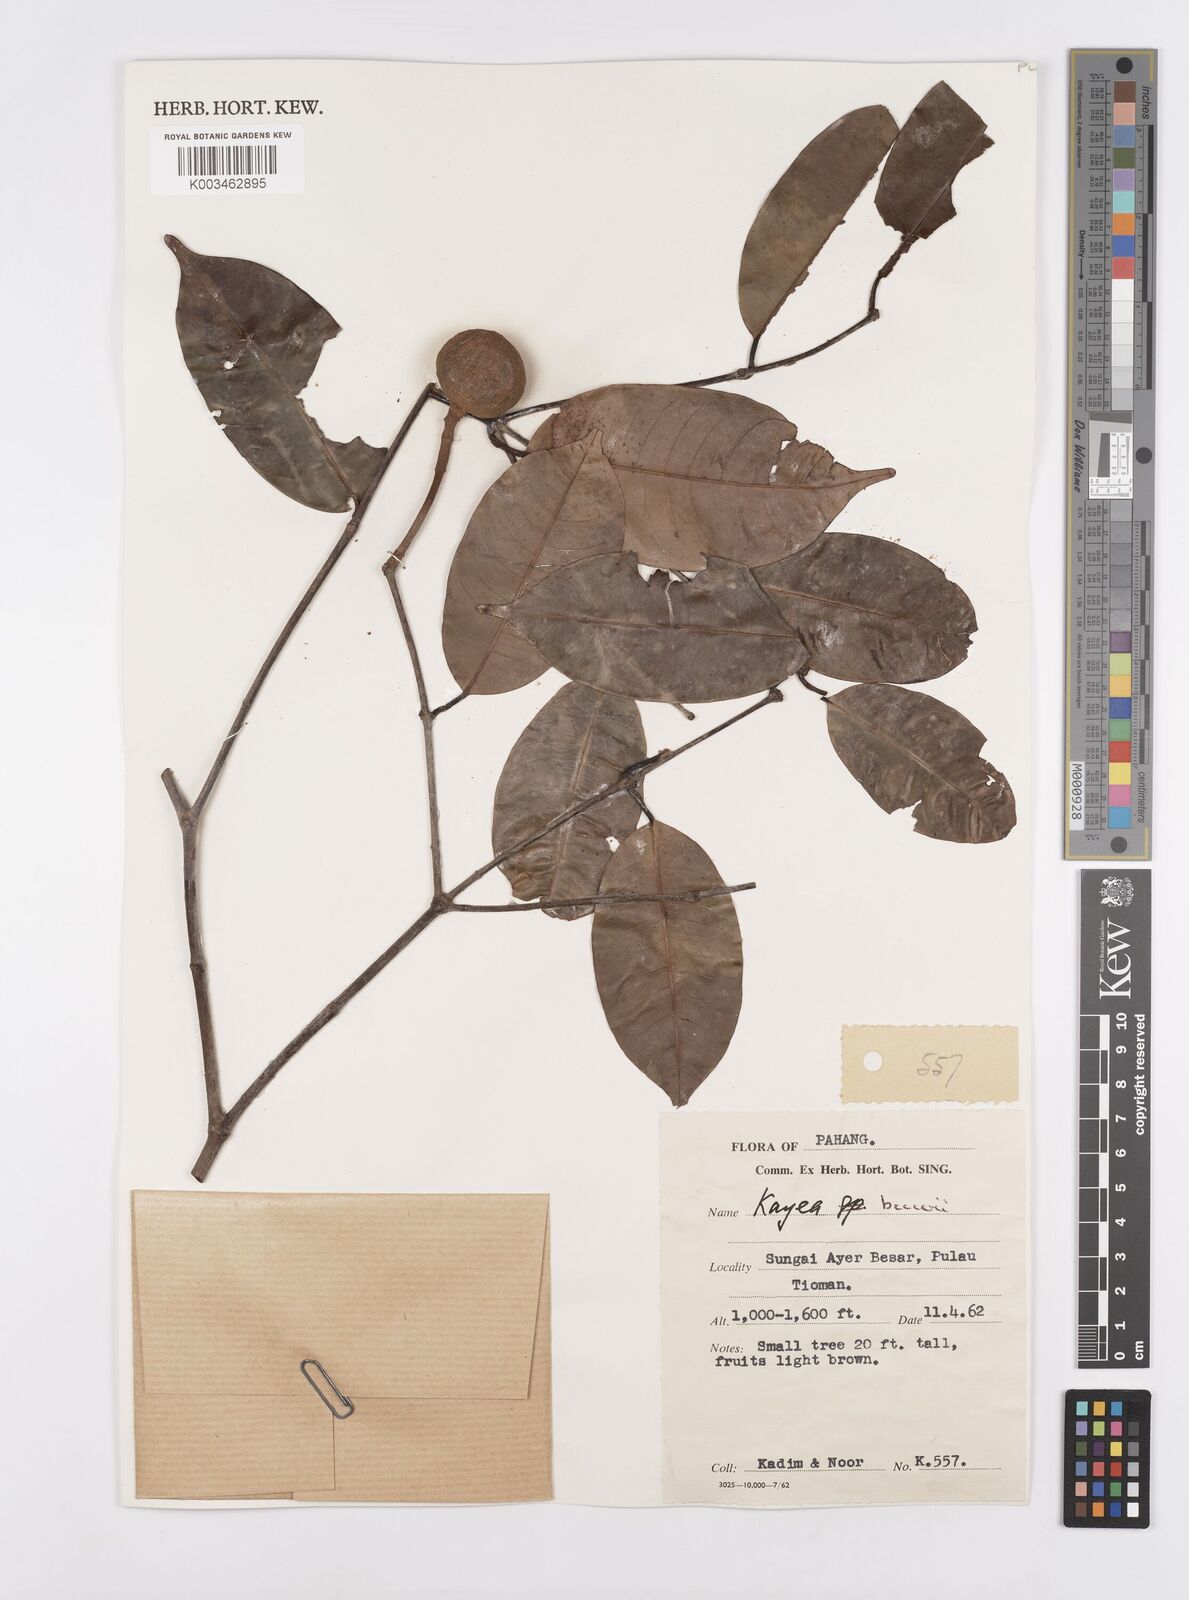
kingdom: Plantae
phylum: Tracheophyta
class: Magnoliopsida
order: Malpighiales
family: Calophyllaceae
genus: Kayea
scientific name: Kayea beccariana
